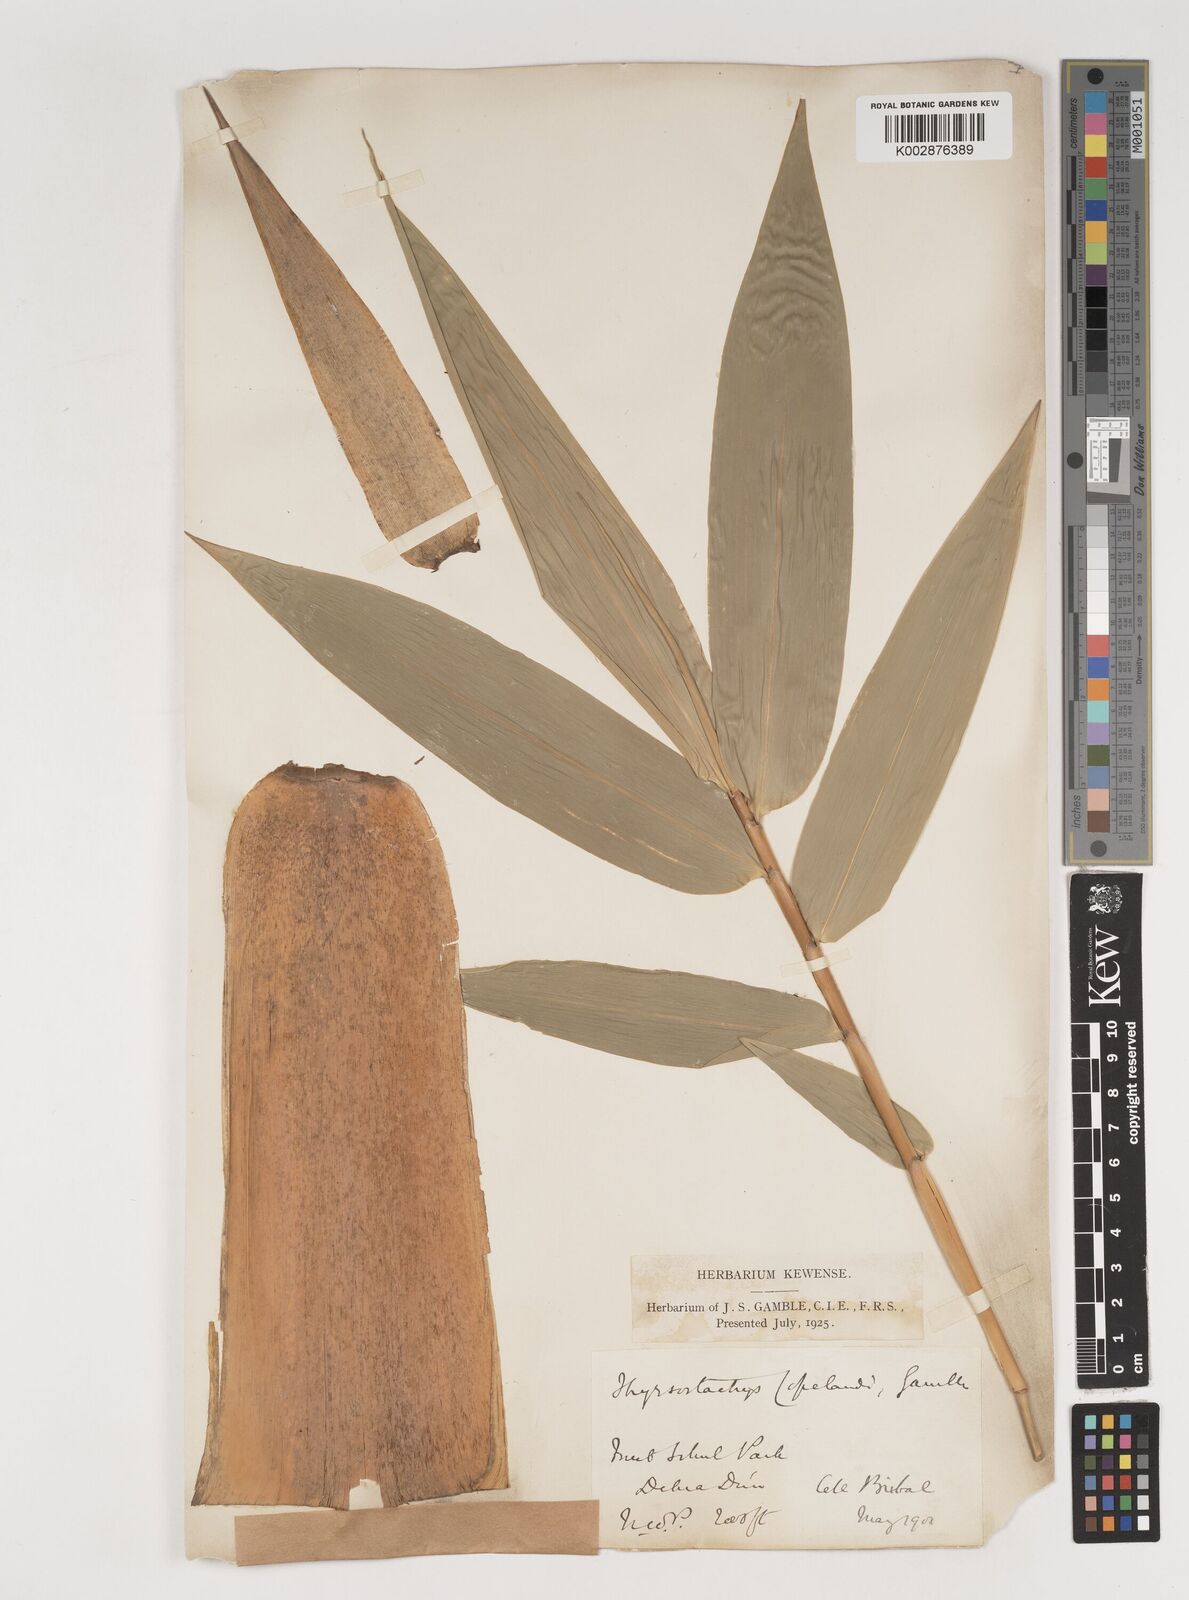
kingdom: Plantae
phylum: Tracheophyta
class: Liliopsida
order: Poales
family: Poaceae
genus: Bambusa
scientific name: Bambusa copelandii
